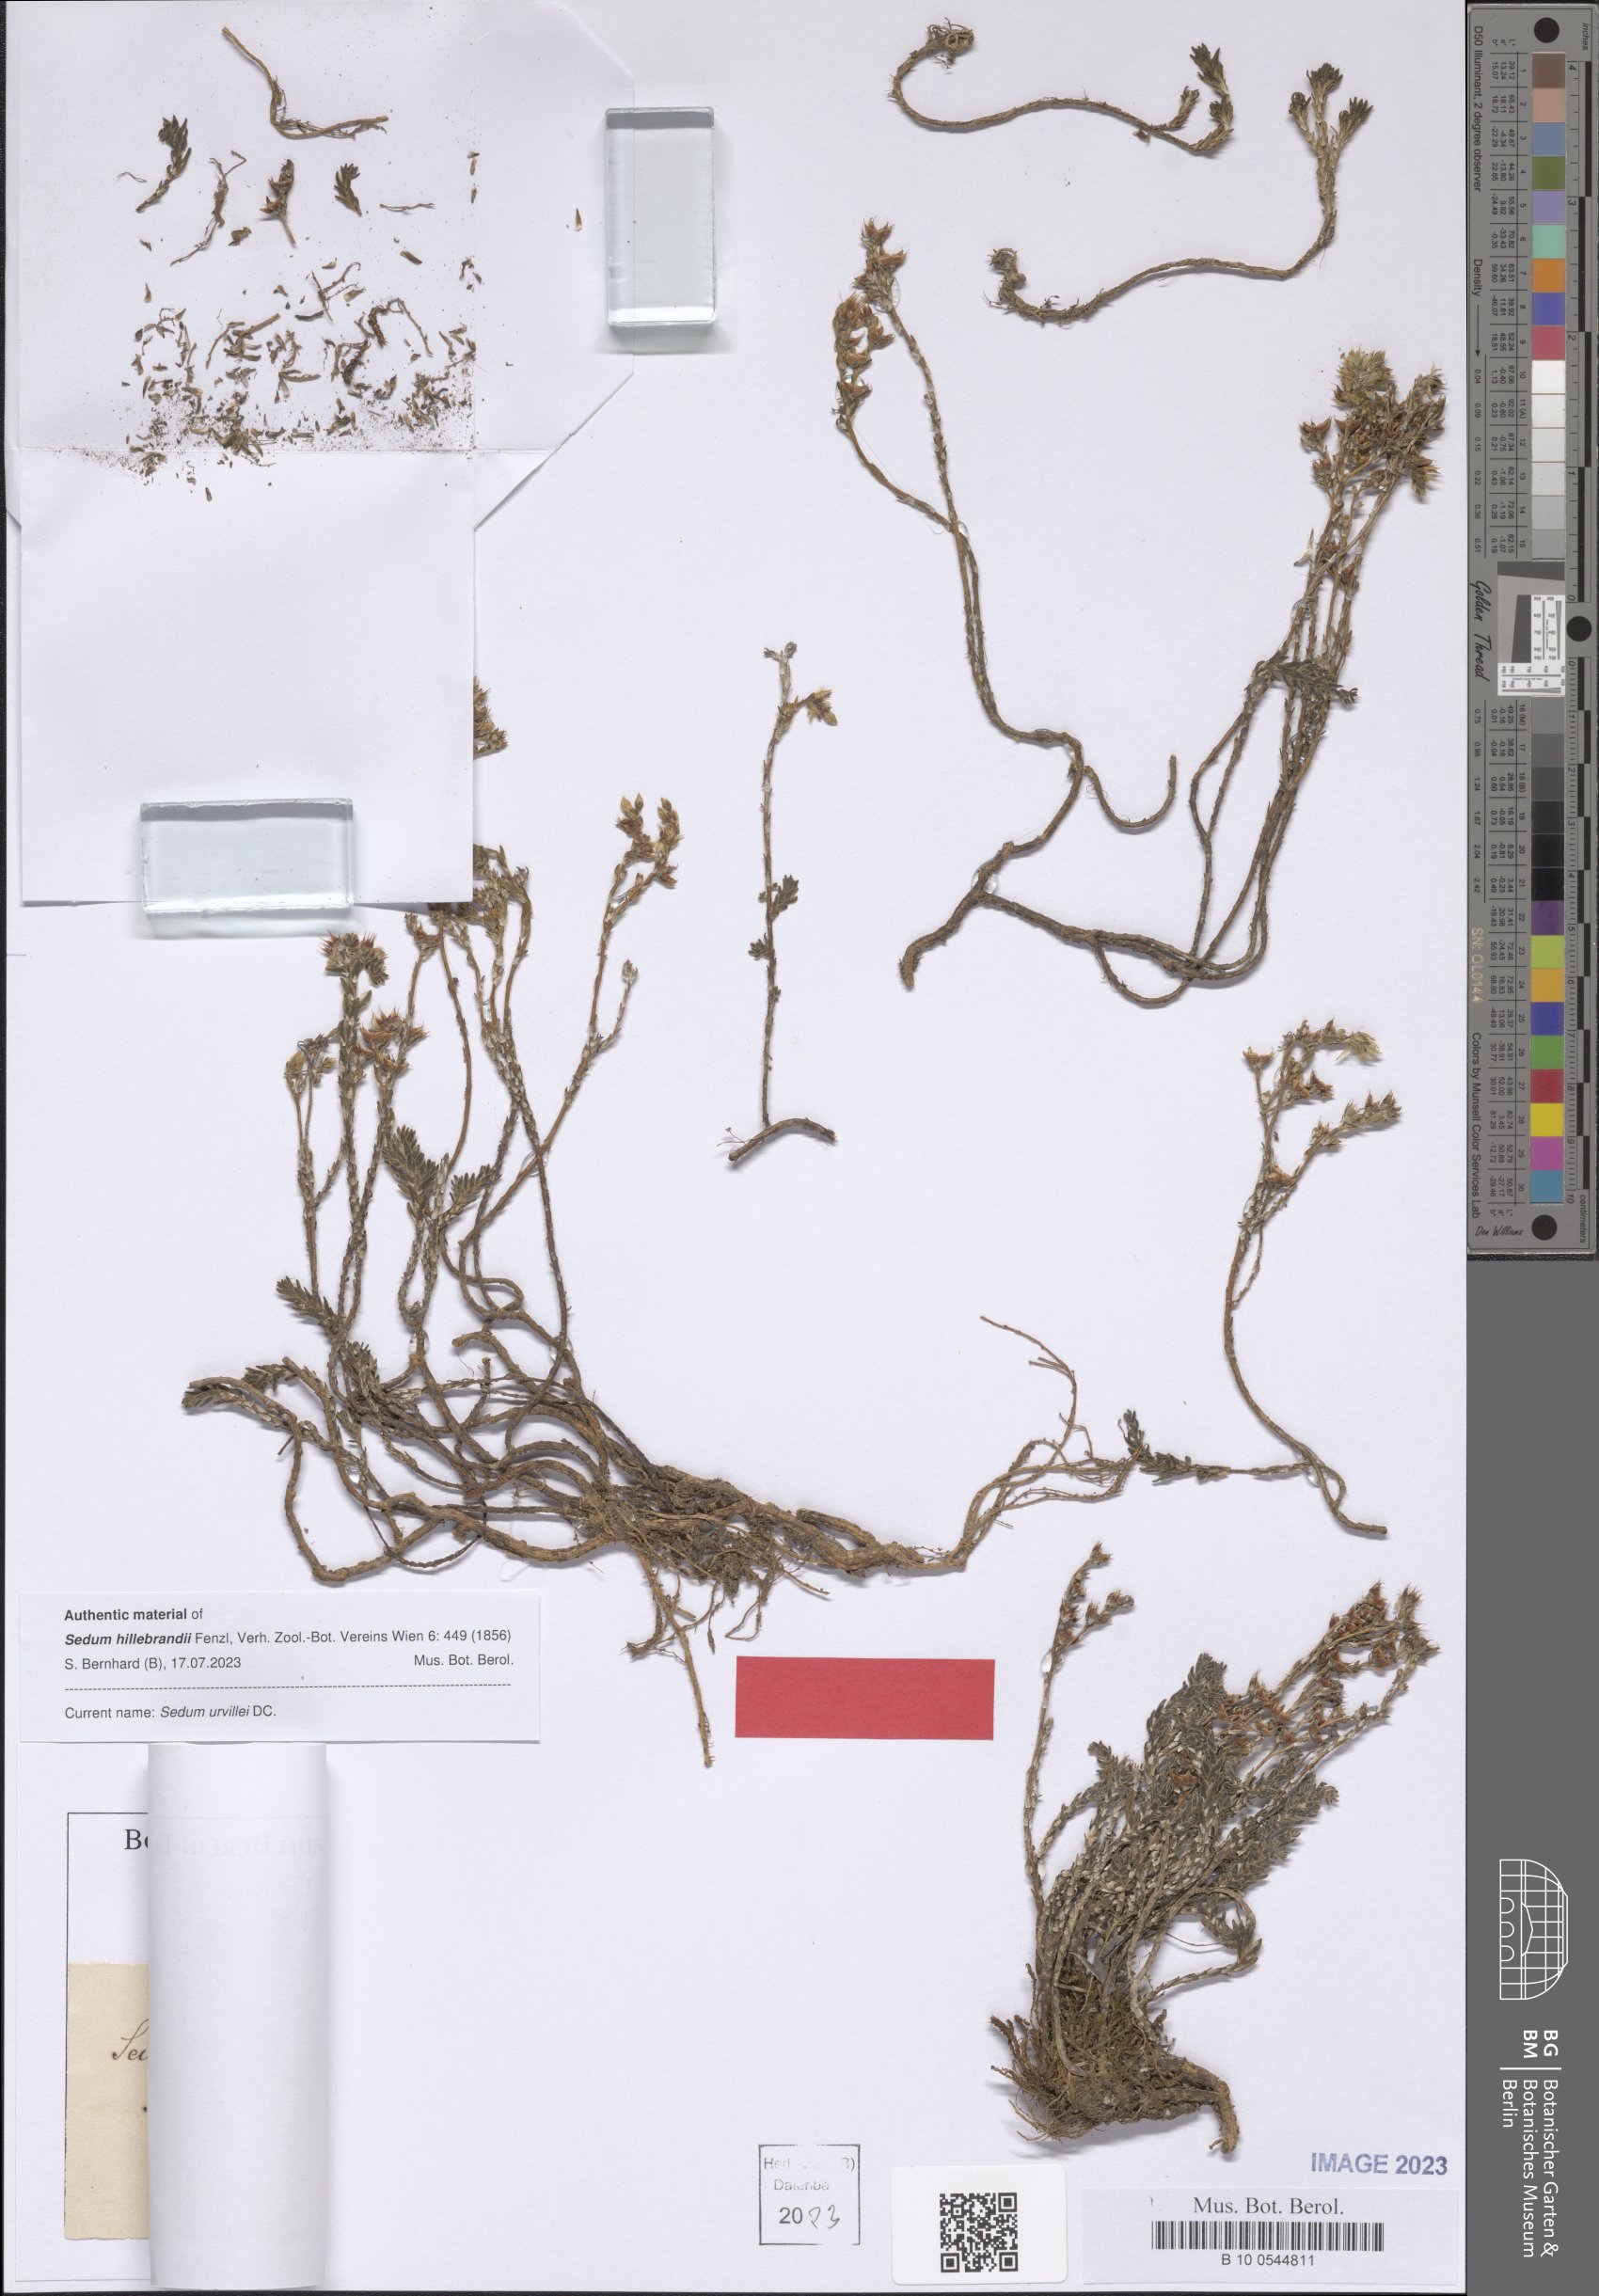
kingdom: Plantae
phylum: Tracheophyta
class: Magnoliopsida
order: Saxifragales
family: Crassulaceae
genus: Sedum
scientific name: Sedum urvillei
